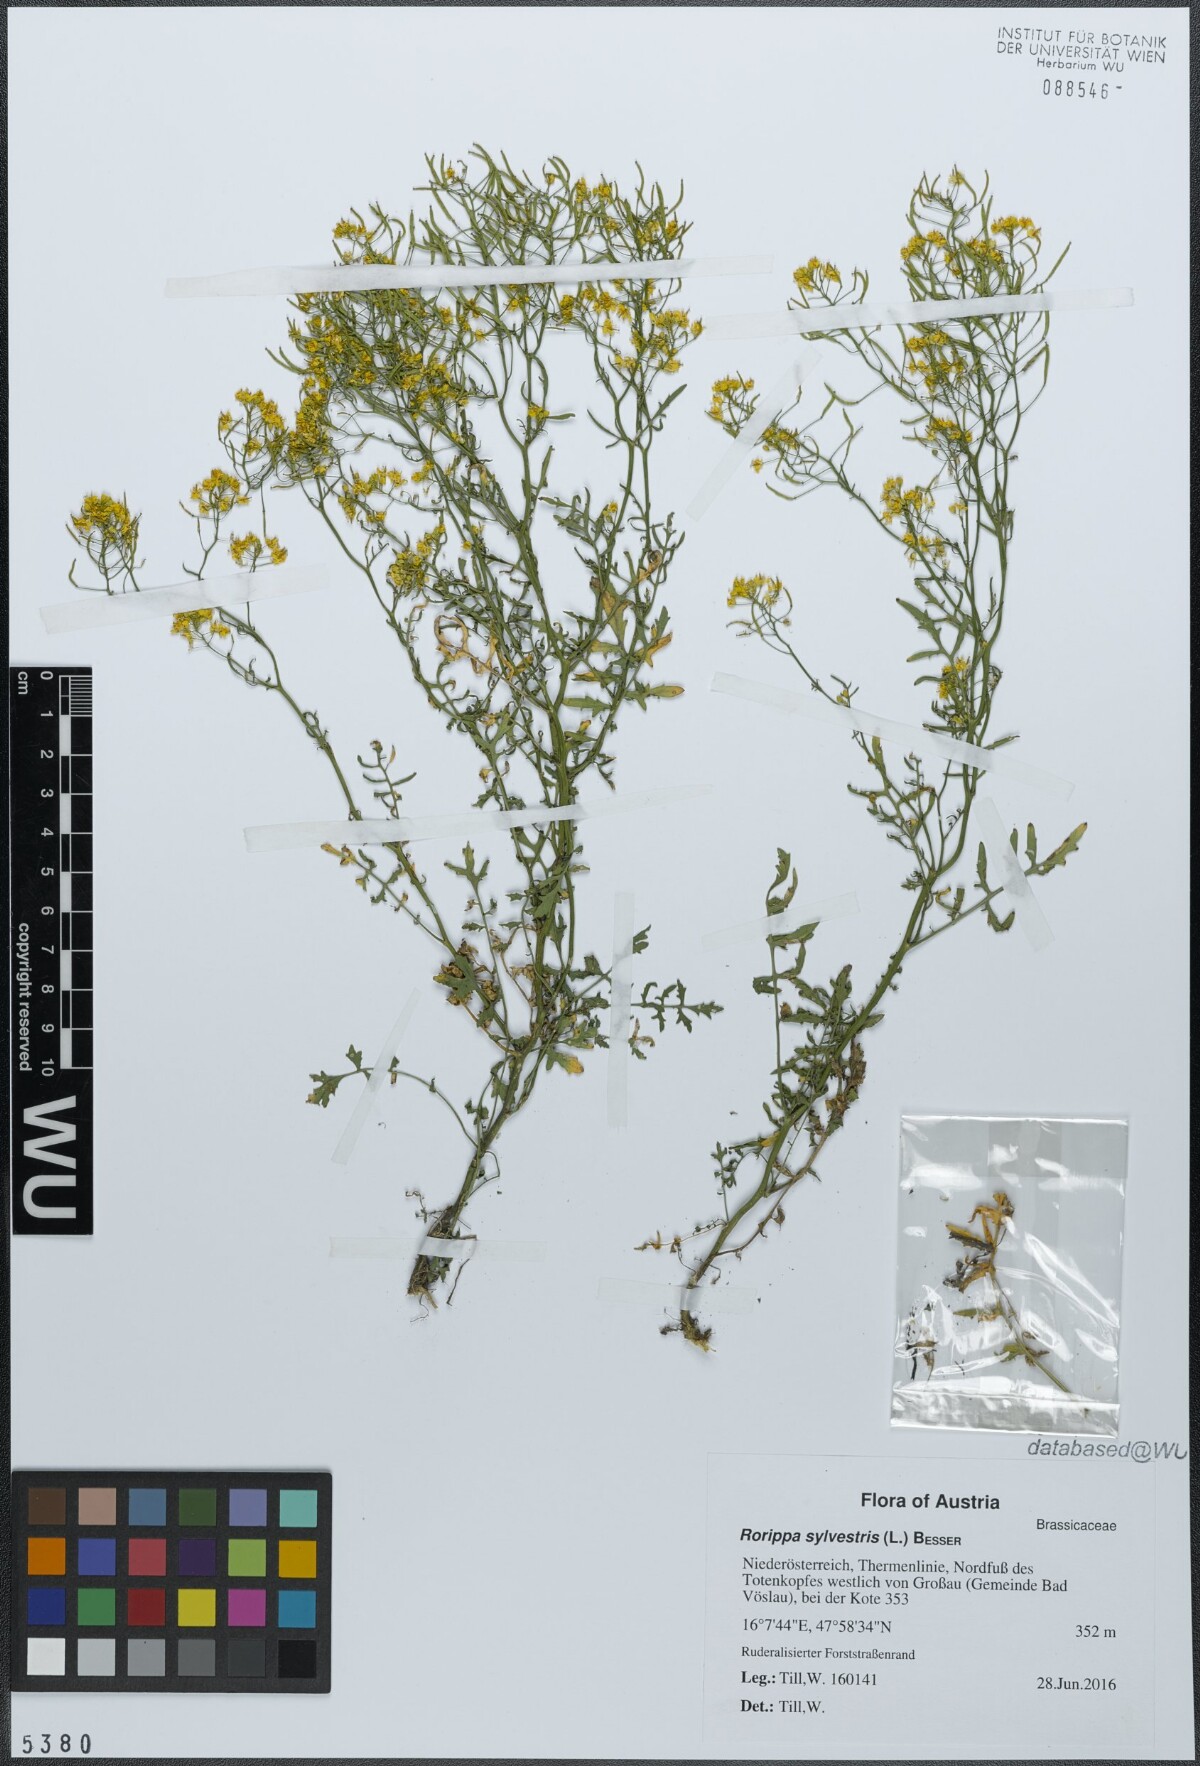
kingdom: Plantae
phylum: Tracheophyta
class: Magnoliopsida
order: Brassicales
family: Brassicaceae
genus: Rorippa
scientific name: Rorippa sylvestris
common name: Creeping yellowcress
